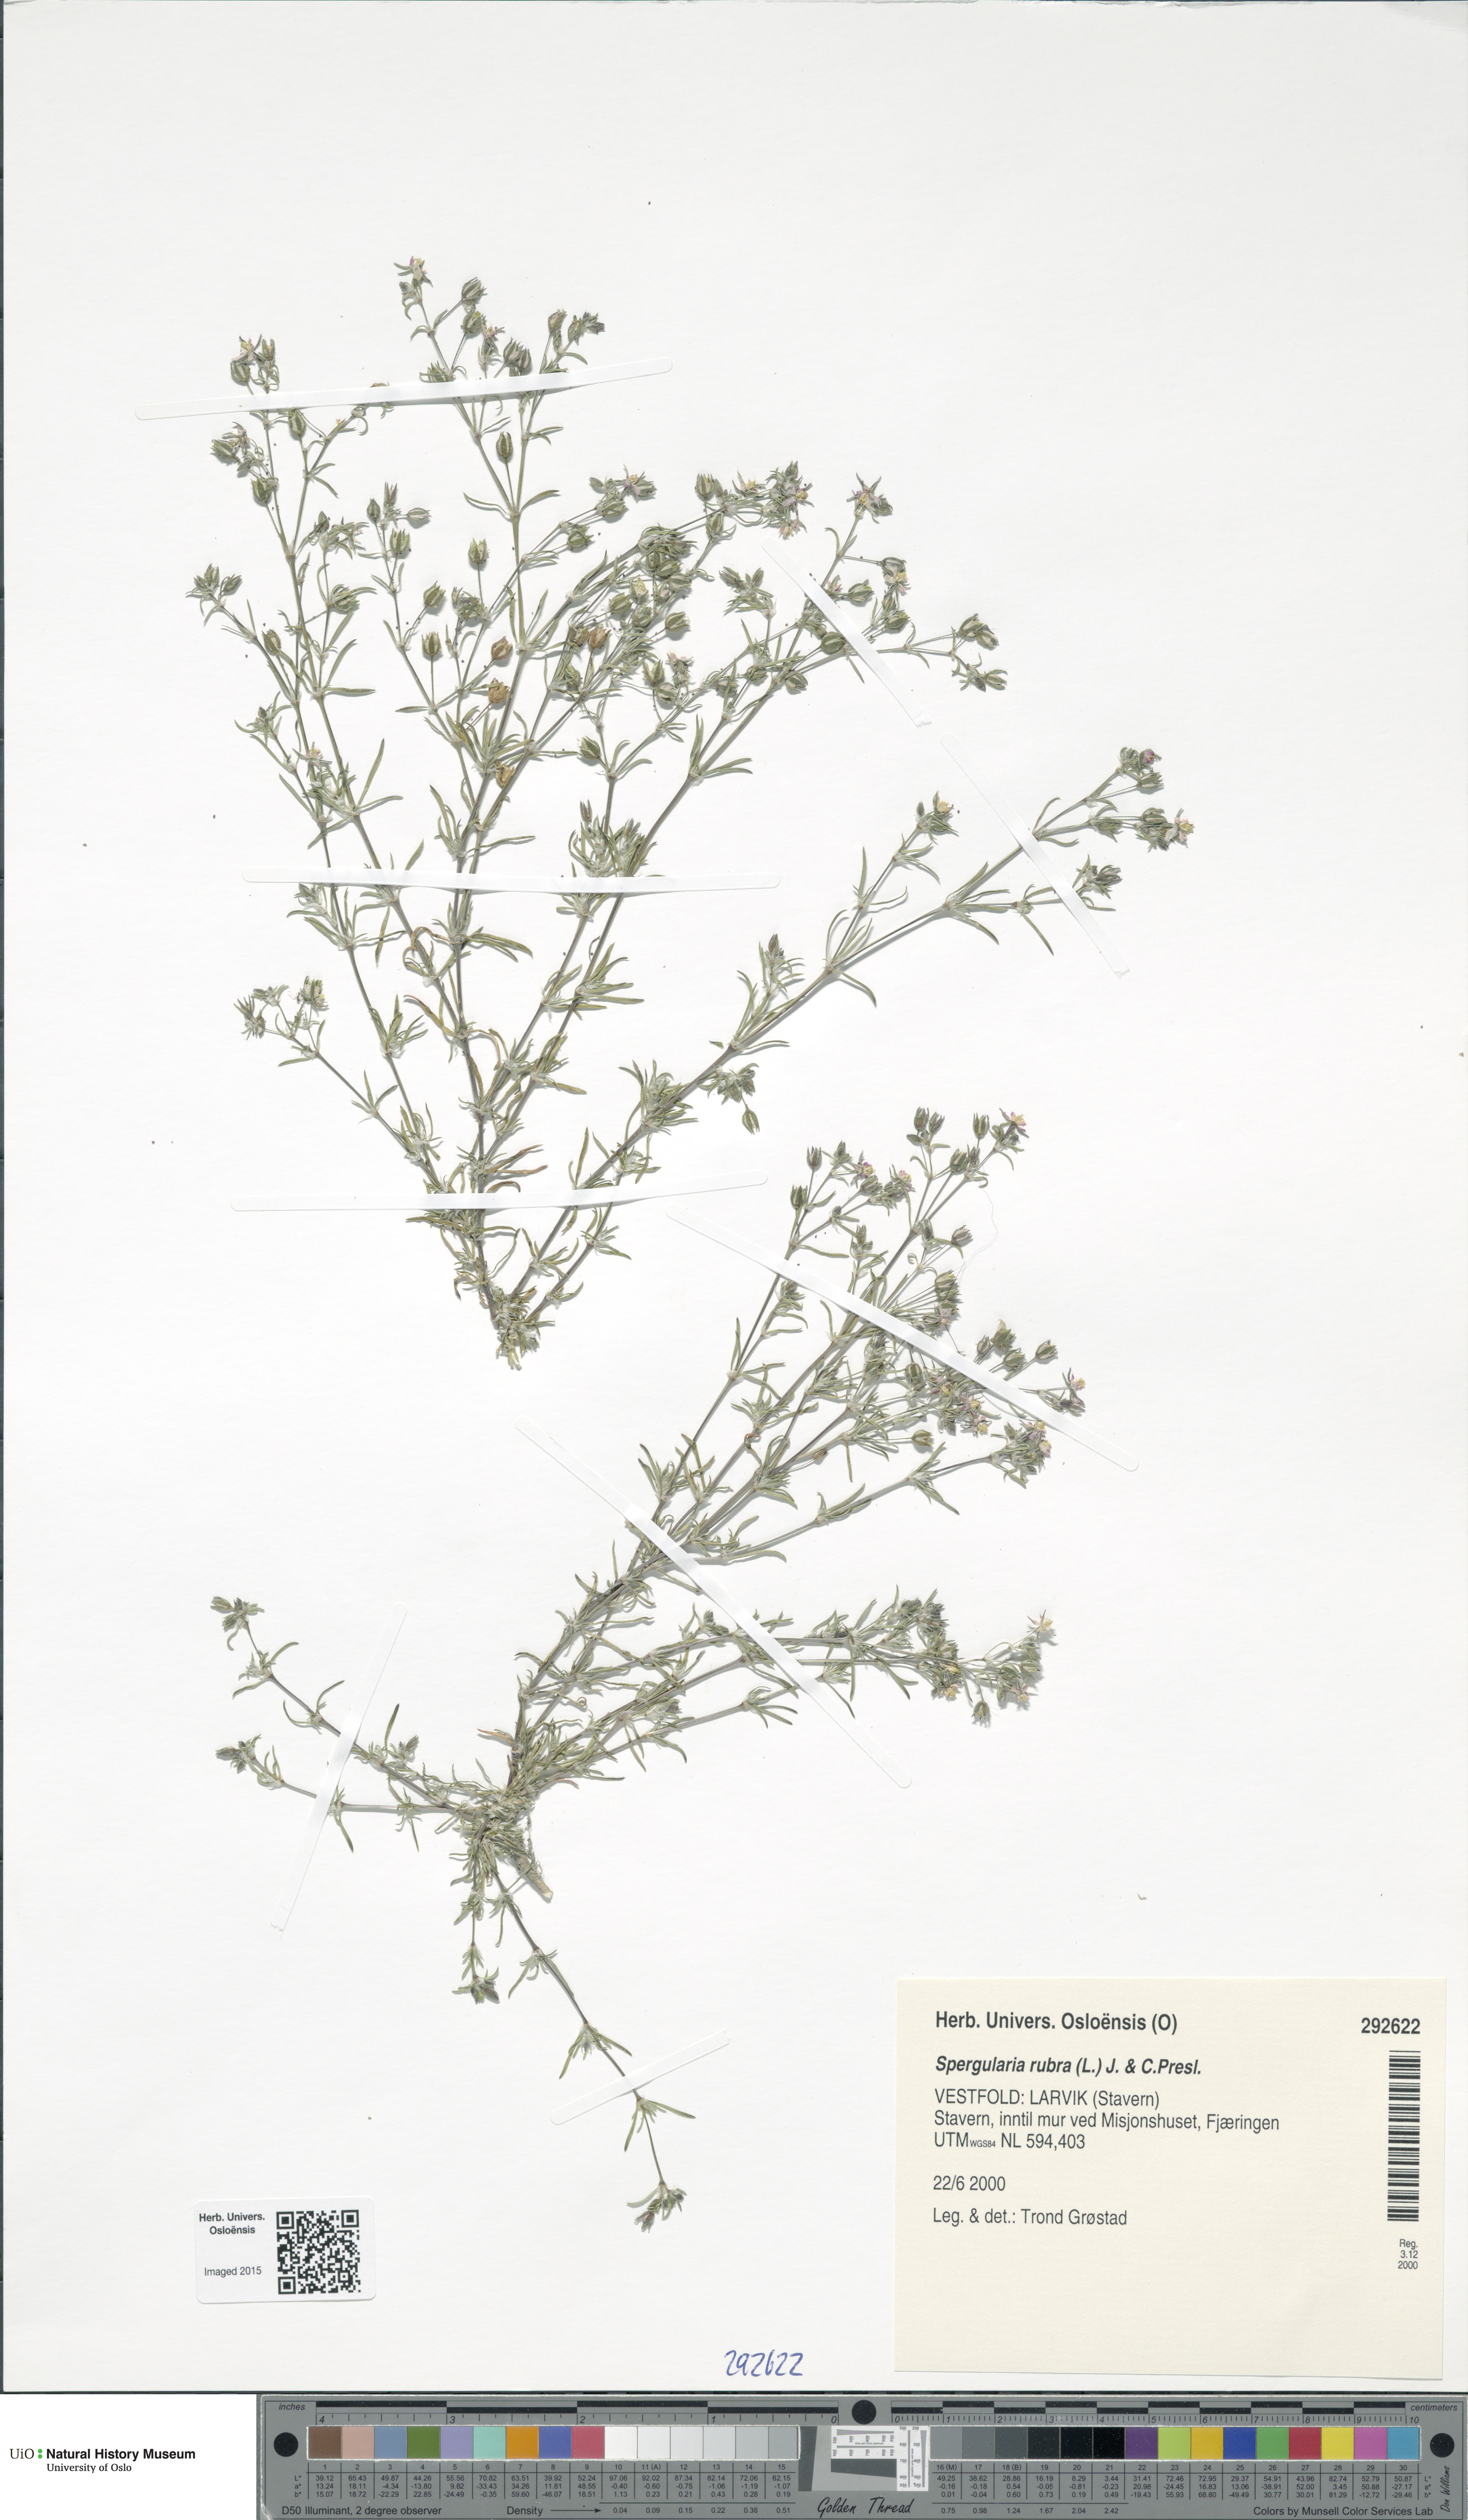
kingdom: Plantae
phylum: Tracheophyta
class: Magnoliopsida
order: Caryophyllales
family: Caryophyllaceae
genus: Spergularia
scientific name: Spergularia rubra
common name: Red sand-spurrey
